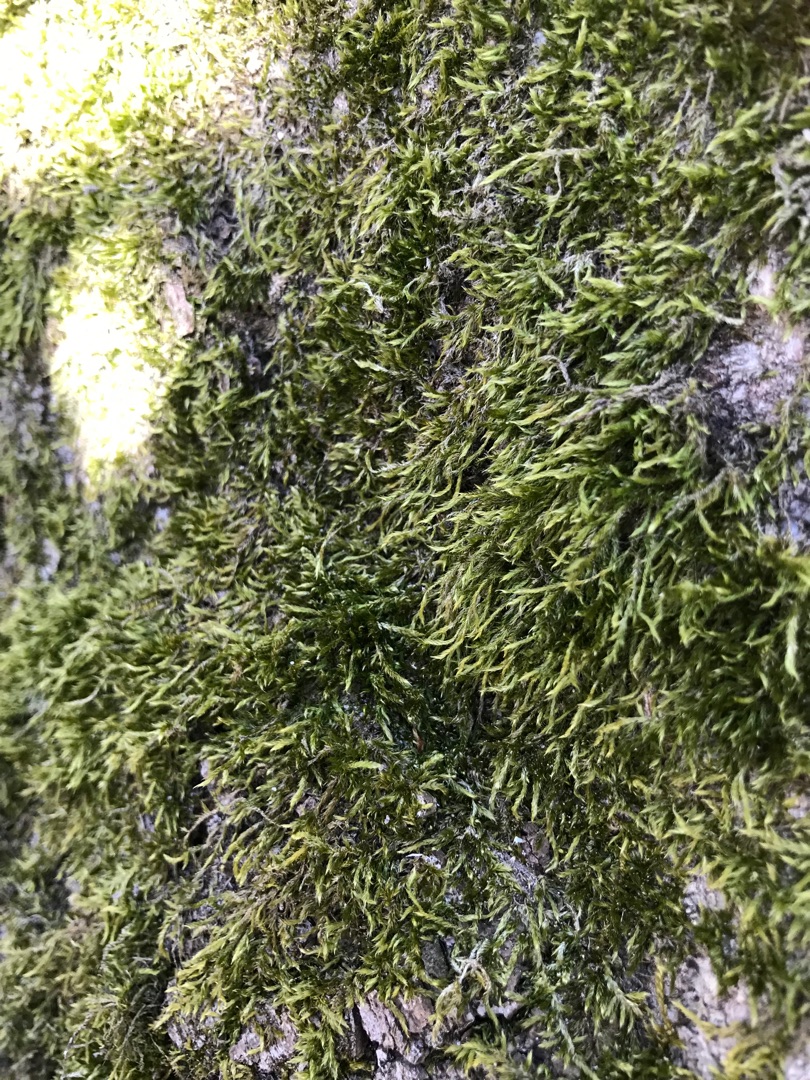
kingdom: Plantae
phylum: Bryophyta
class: Bryopsida
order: Hypnales
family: Hypnaceae
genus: Hypnum
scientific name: Hypnum
